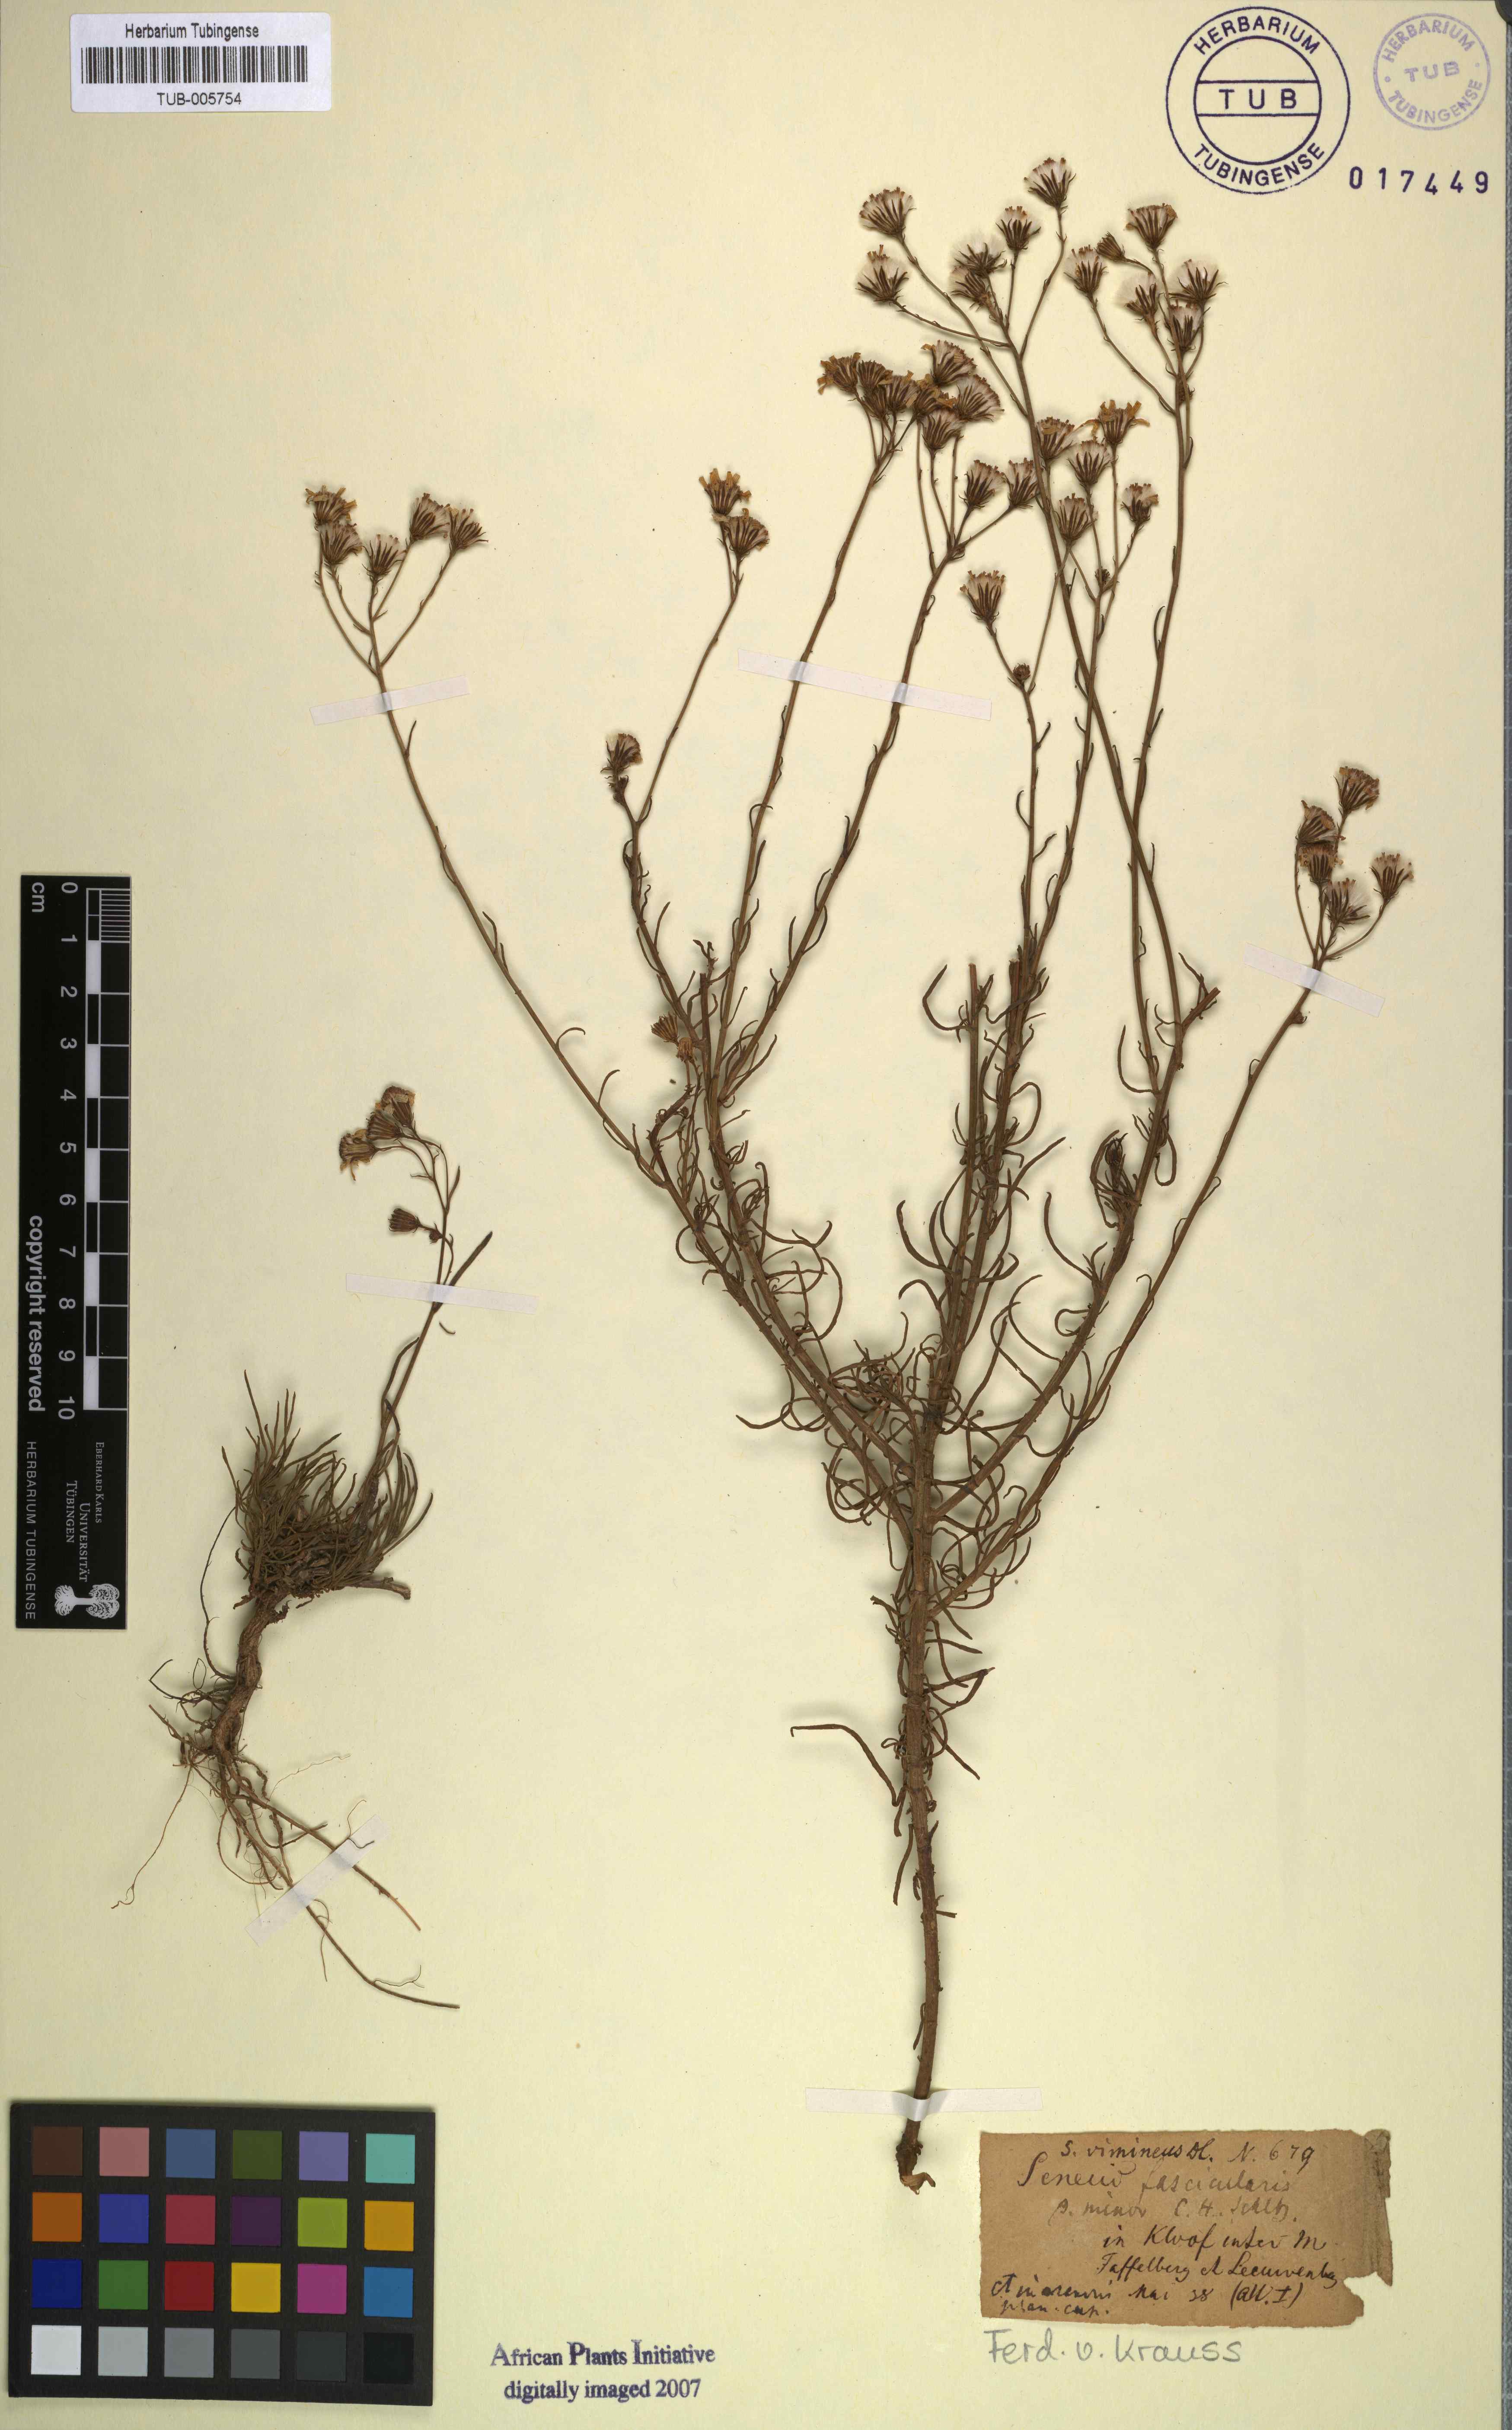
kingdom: Plantae
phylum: Tracheophyta
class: Magnoliopsida
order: Asterales
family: Asteraceae
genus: Senecio
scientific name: Senecio vimineus
